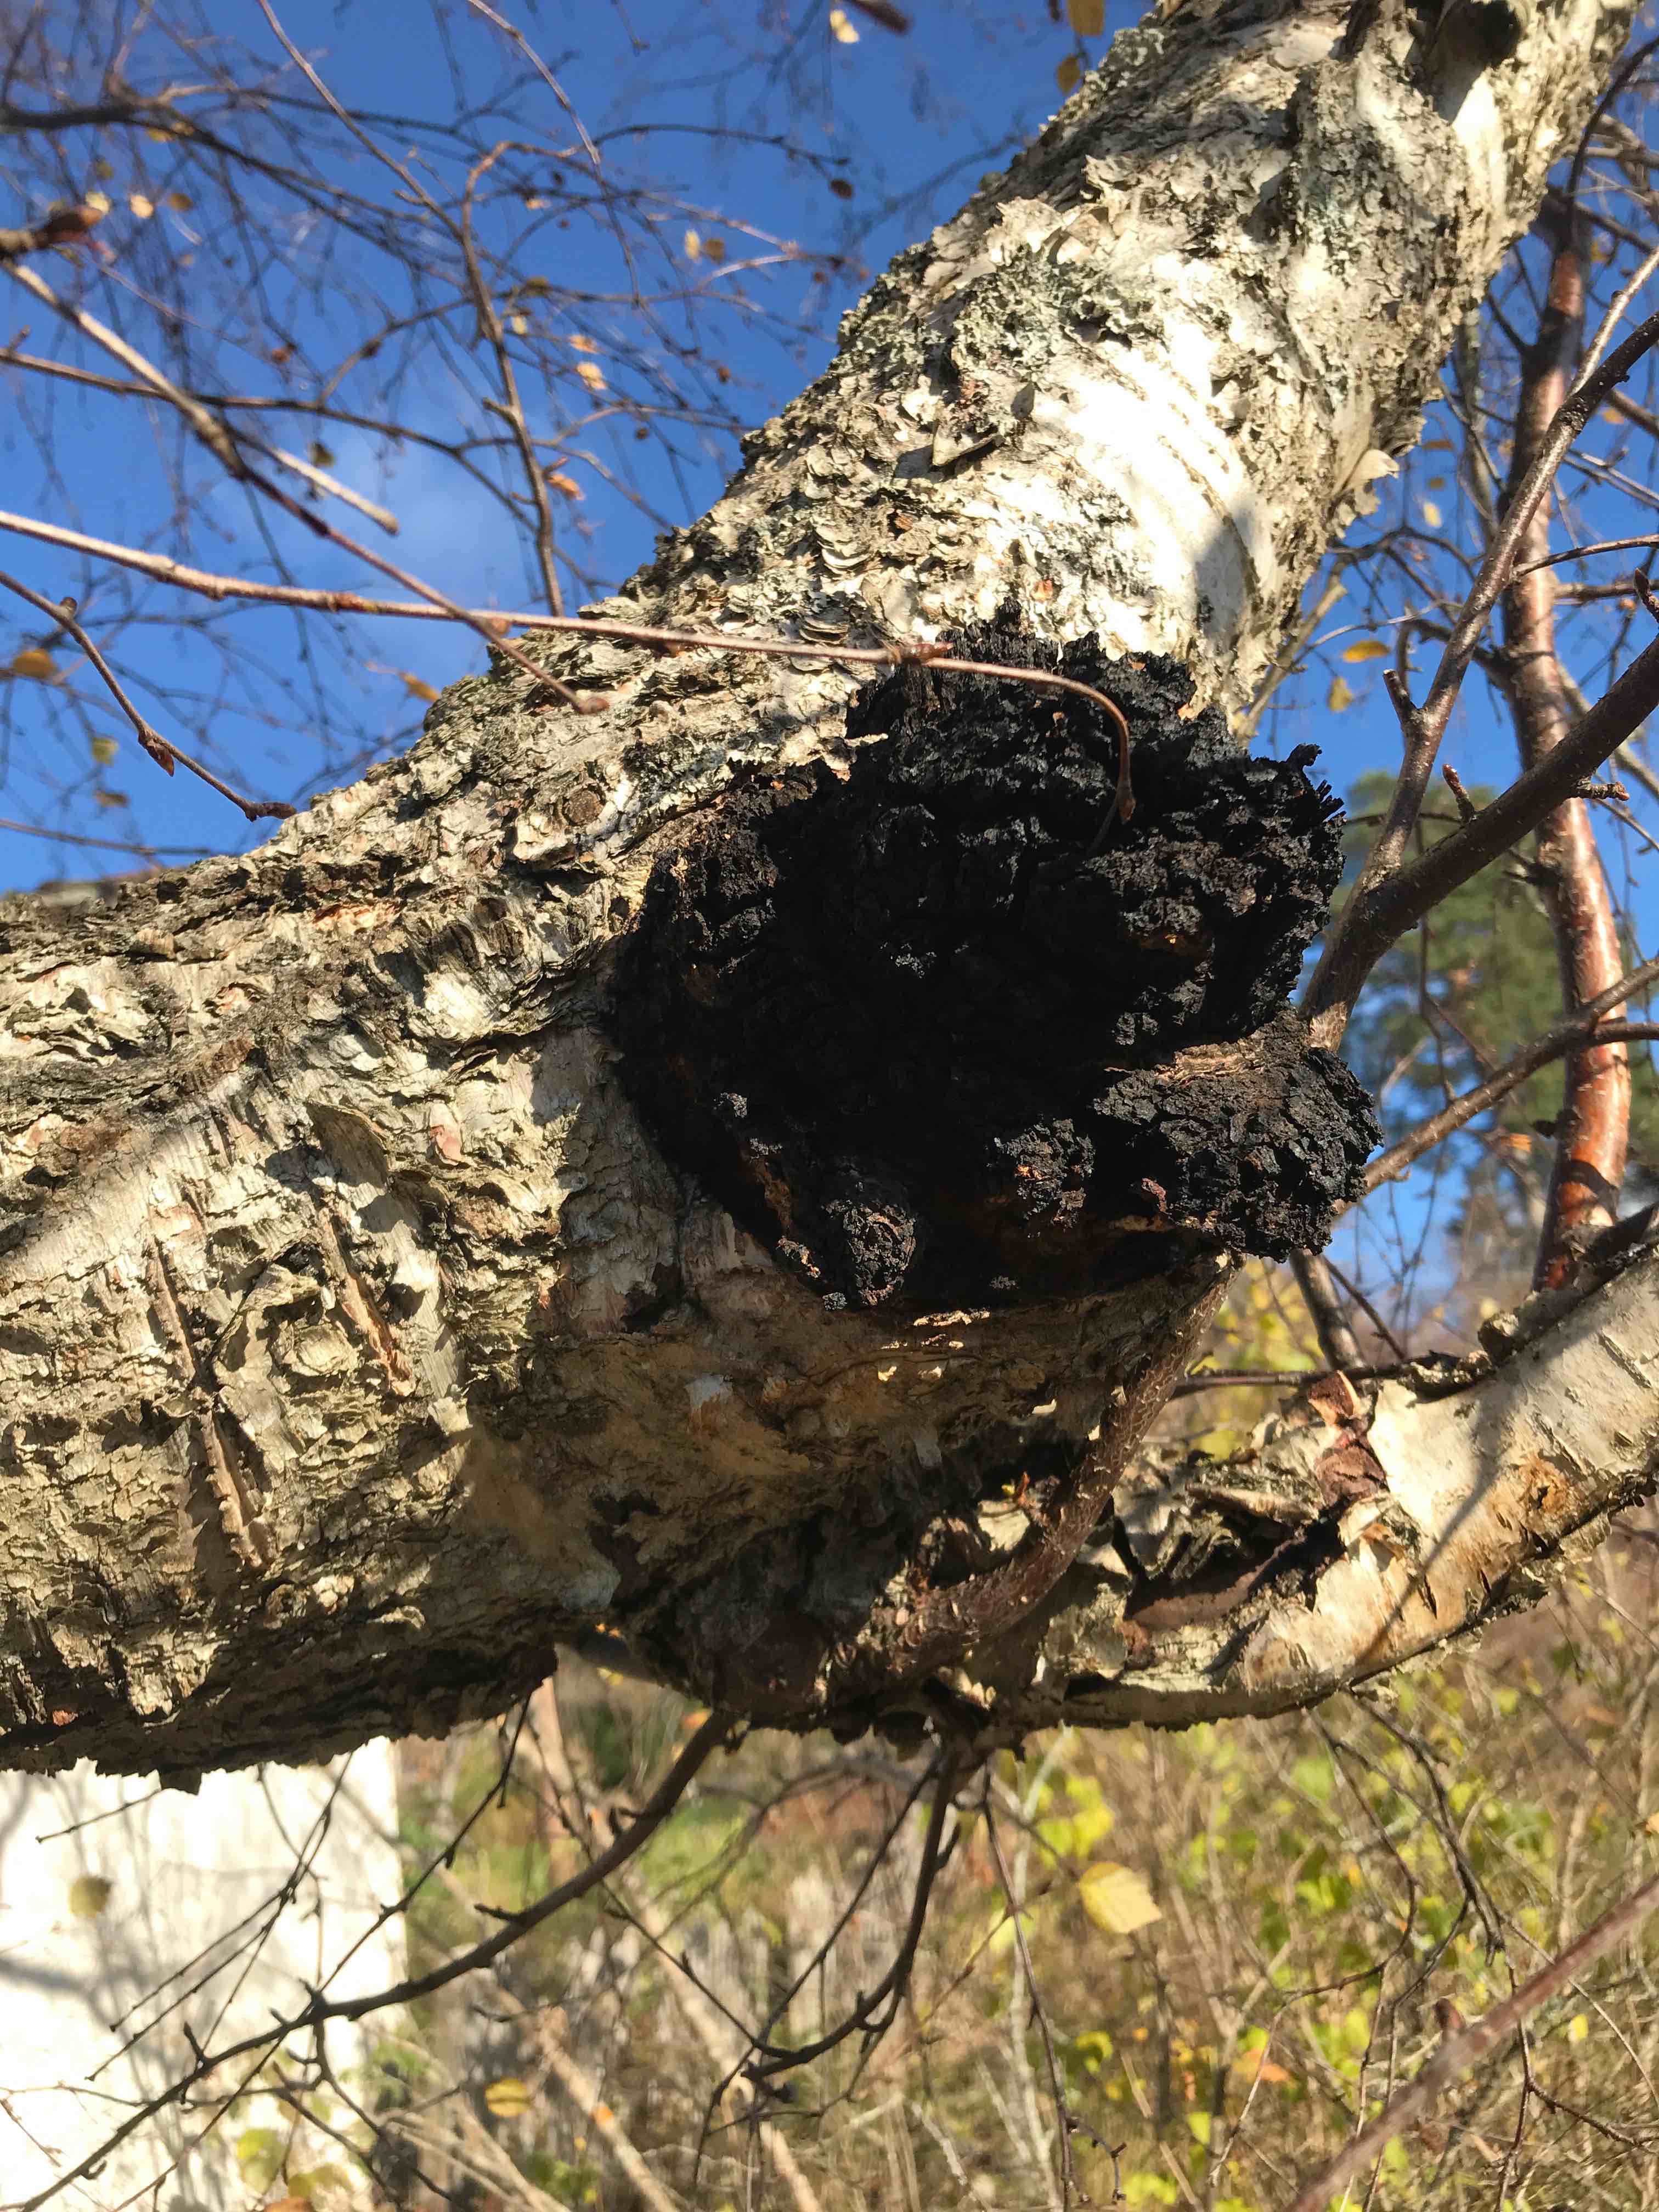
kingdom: Fungi
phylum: Basidiomycota
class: Agaricomycetes
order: Hymenochaetales
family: Hymenochaetaceae
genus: Inonotus
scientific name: Inonotus obliquus
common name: birke-spejlporesvamp
